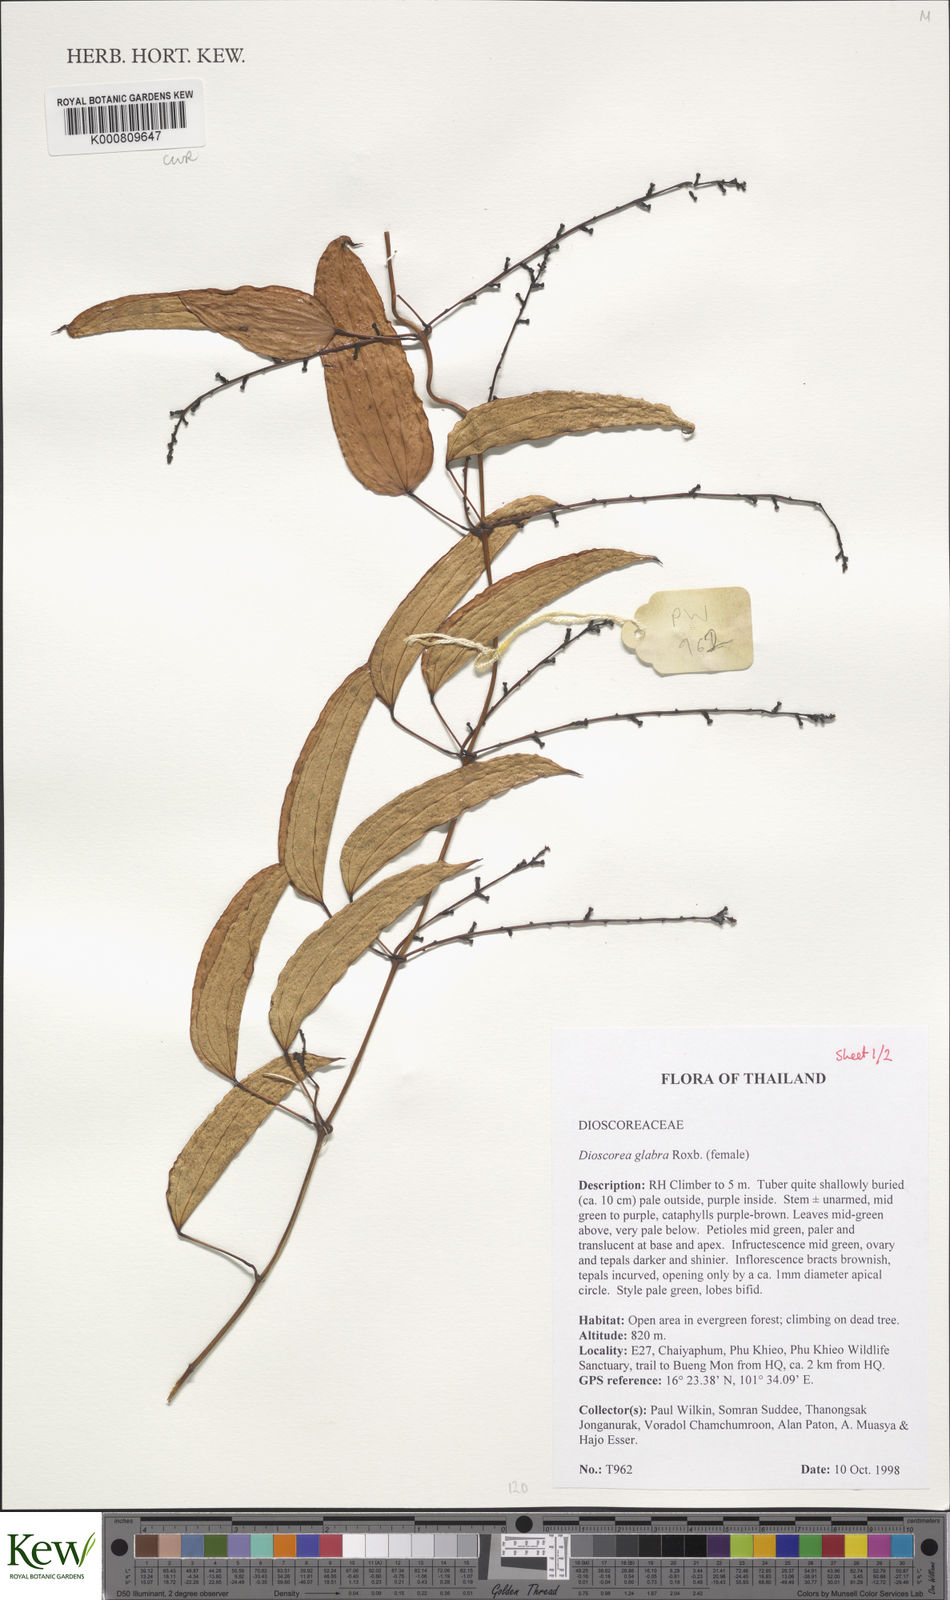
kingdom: Plantae
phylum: Tracheophyta
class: Liliopsida
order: Dioscoreales
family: Dioscoreaceae
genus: Dioscorea
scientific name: Dioscorea glabra
